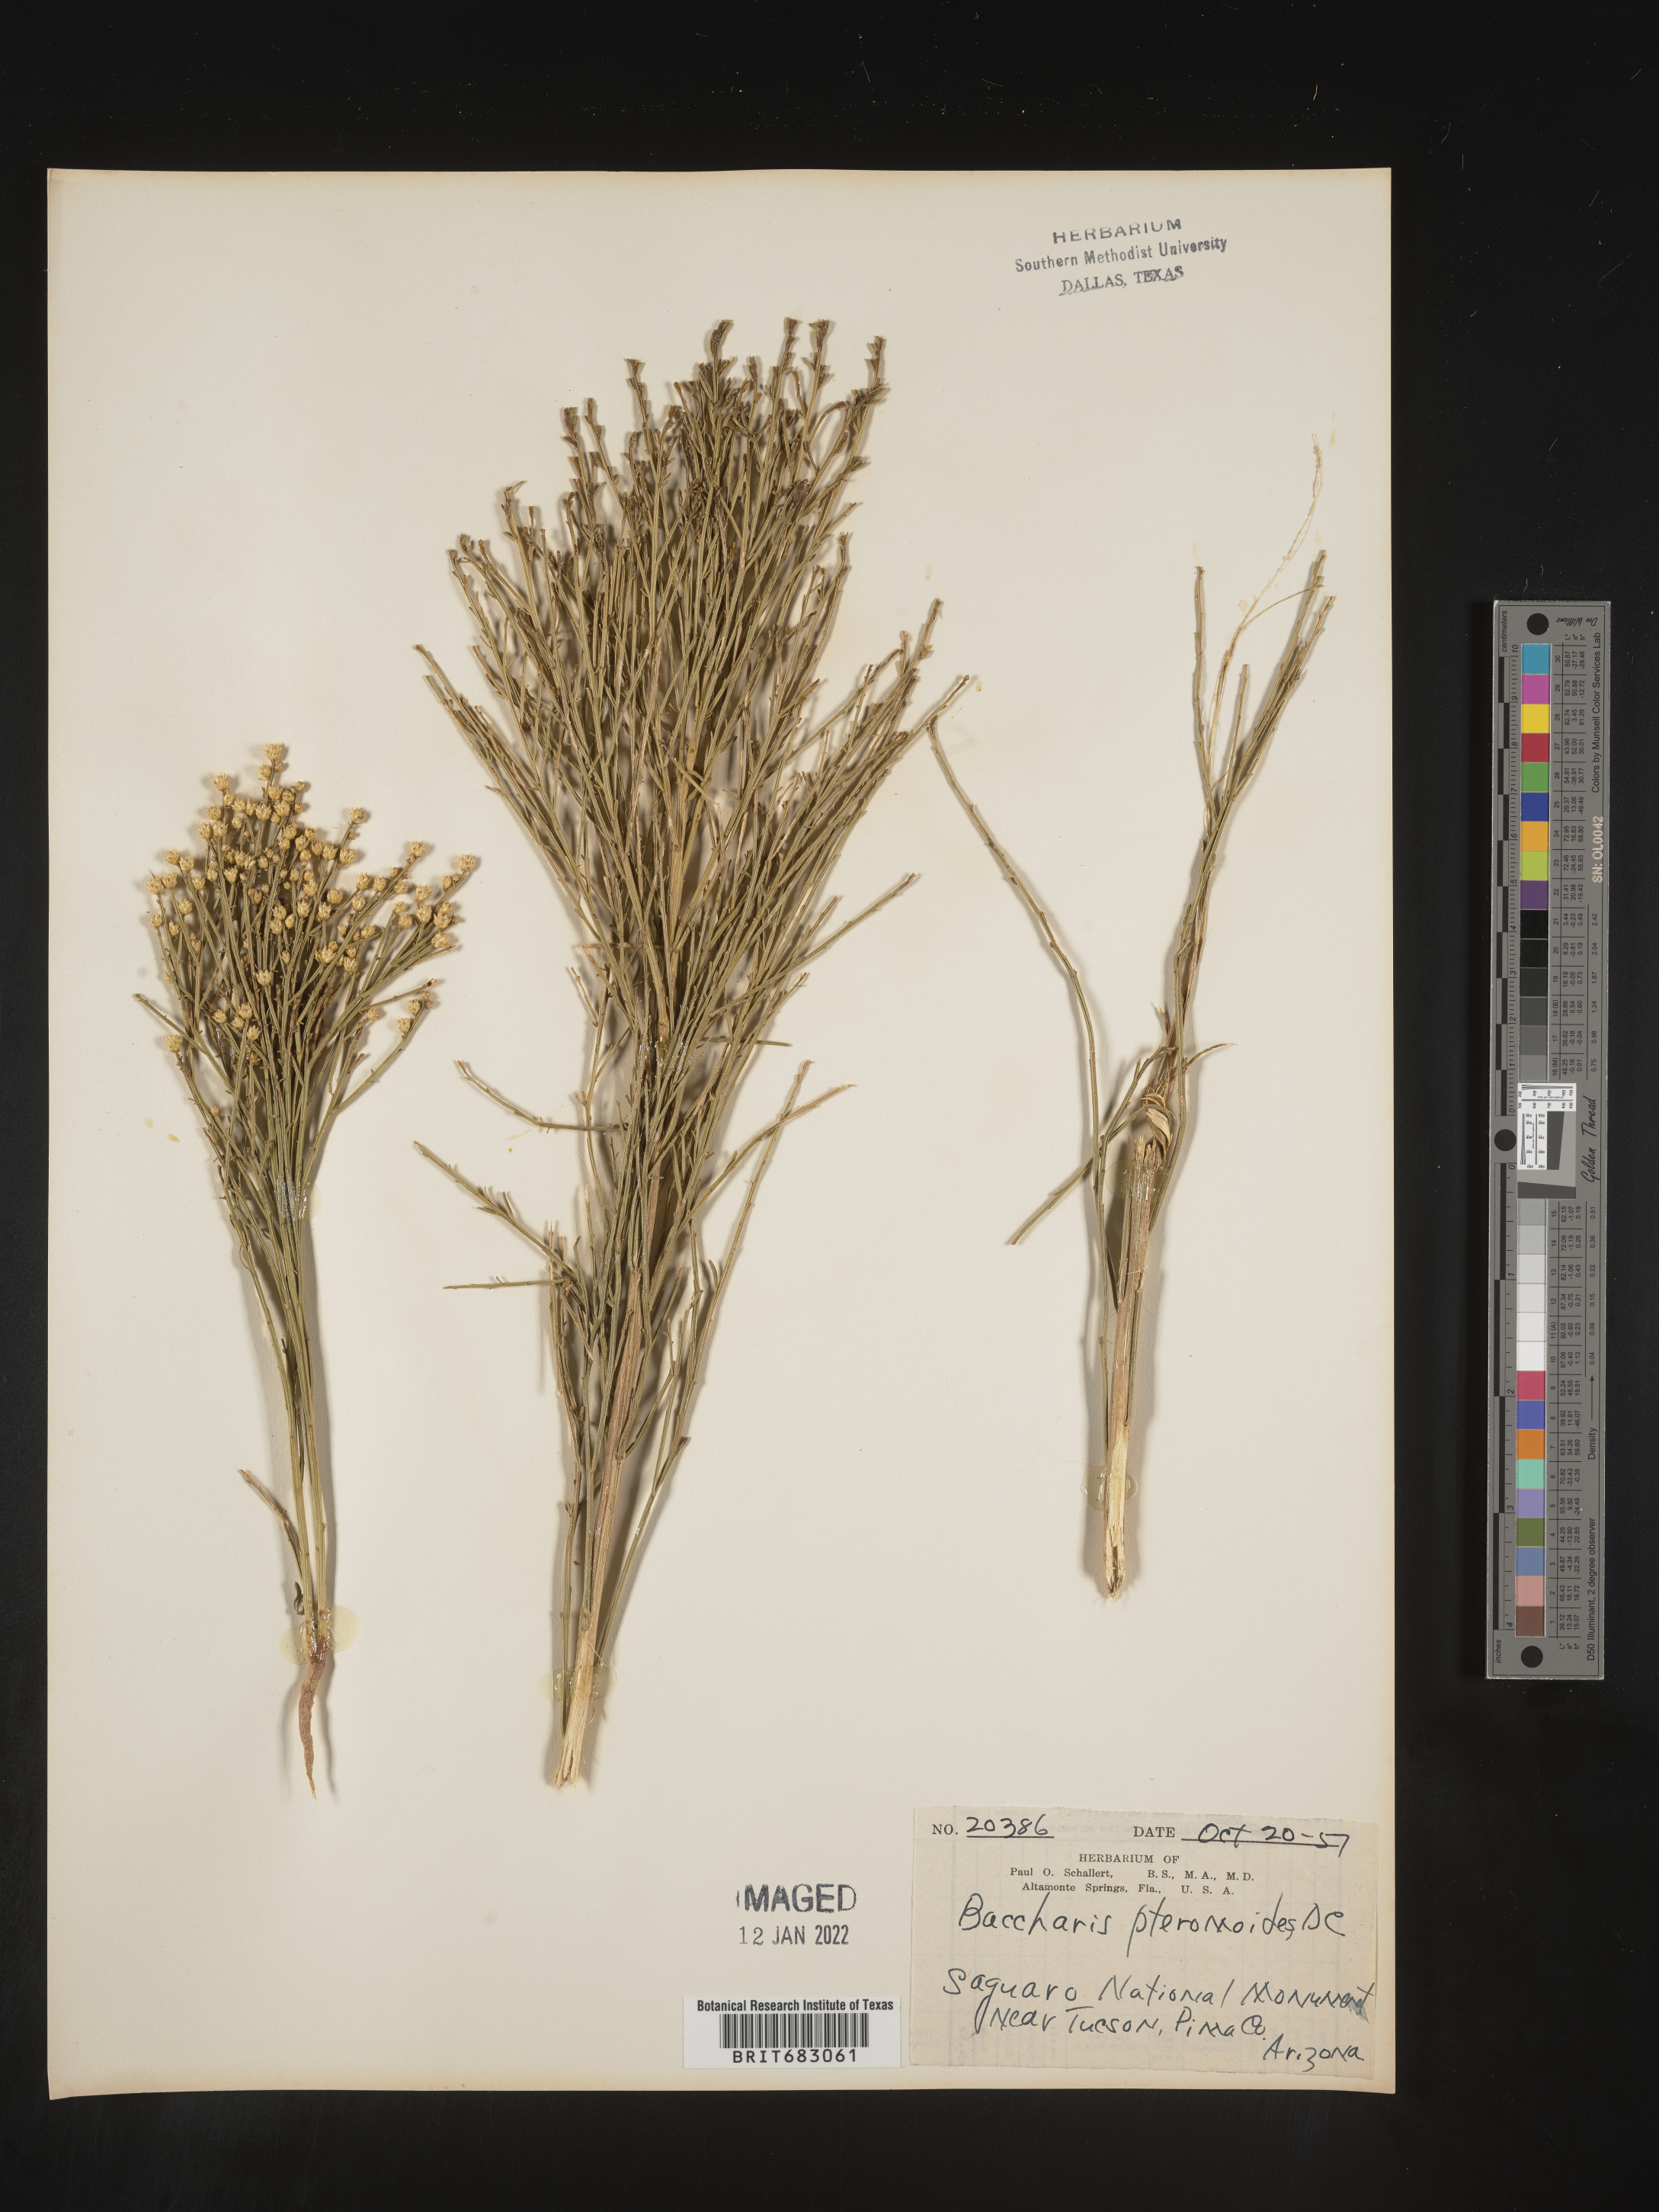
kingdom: Plantae
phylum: Tracheophyta
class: Magnoliopsida
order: Asterales
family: Asteraceae
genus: Baccharis
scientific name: Baccharis sarothroides
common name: Desert-broom
